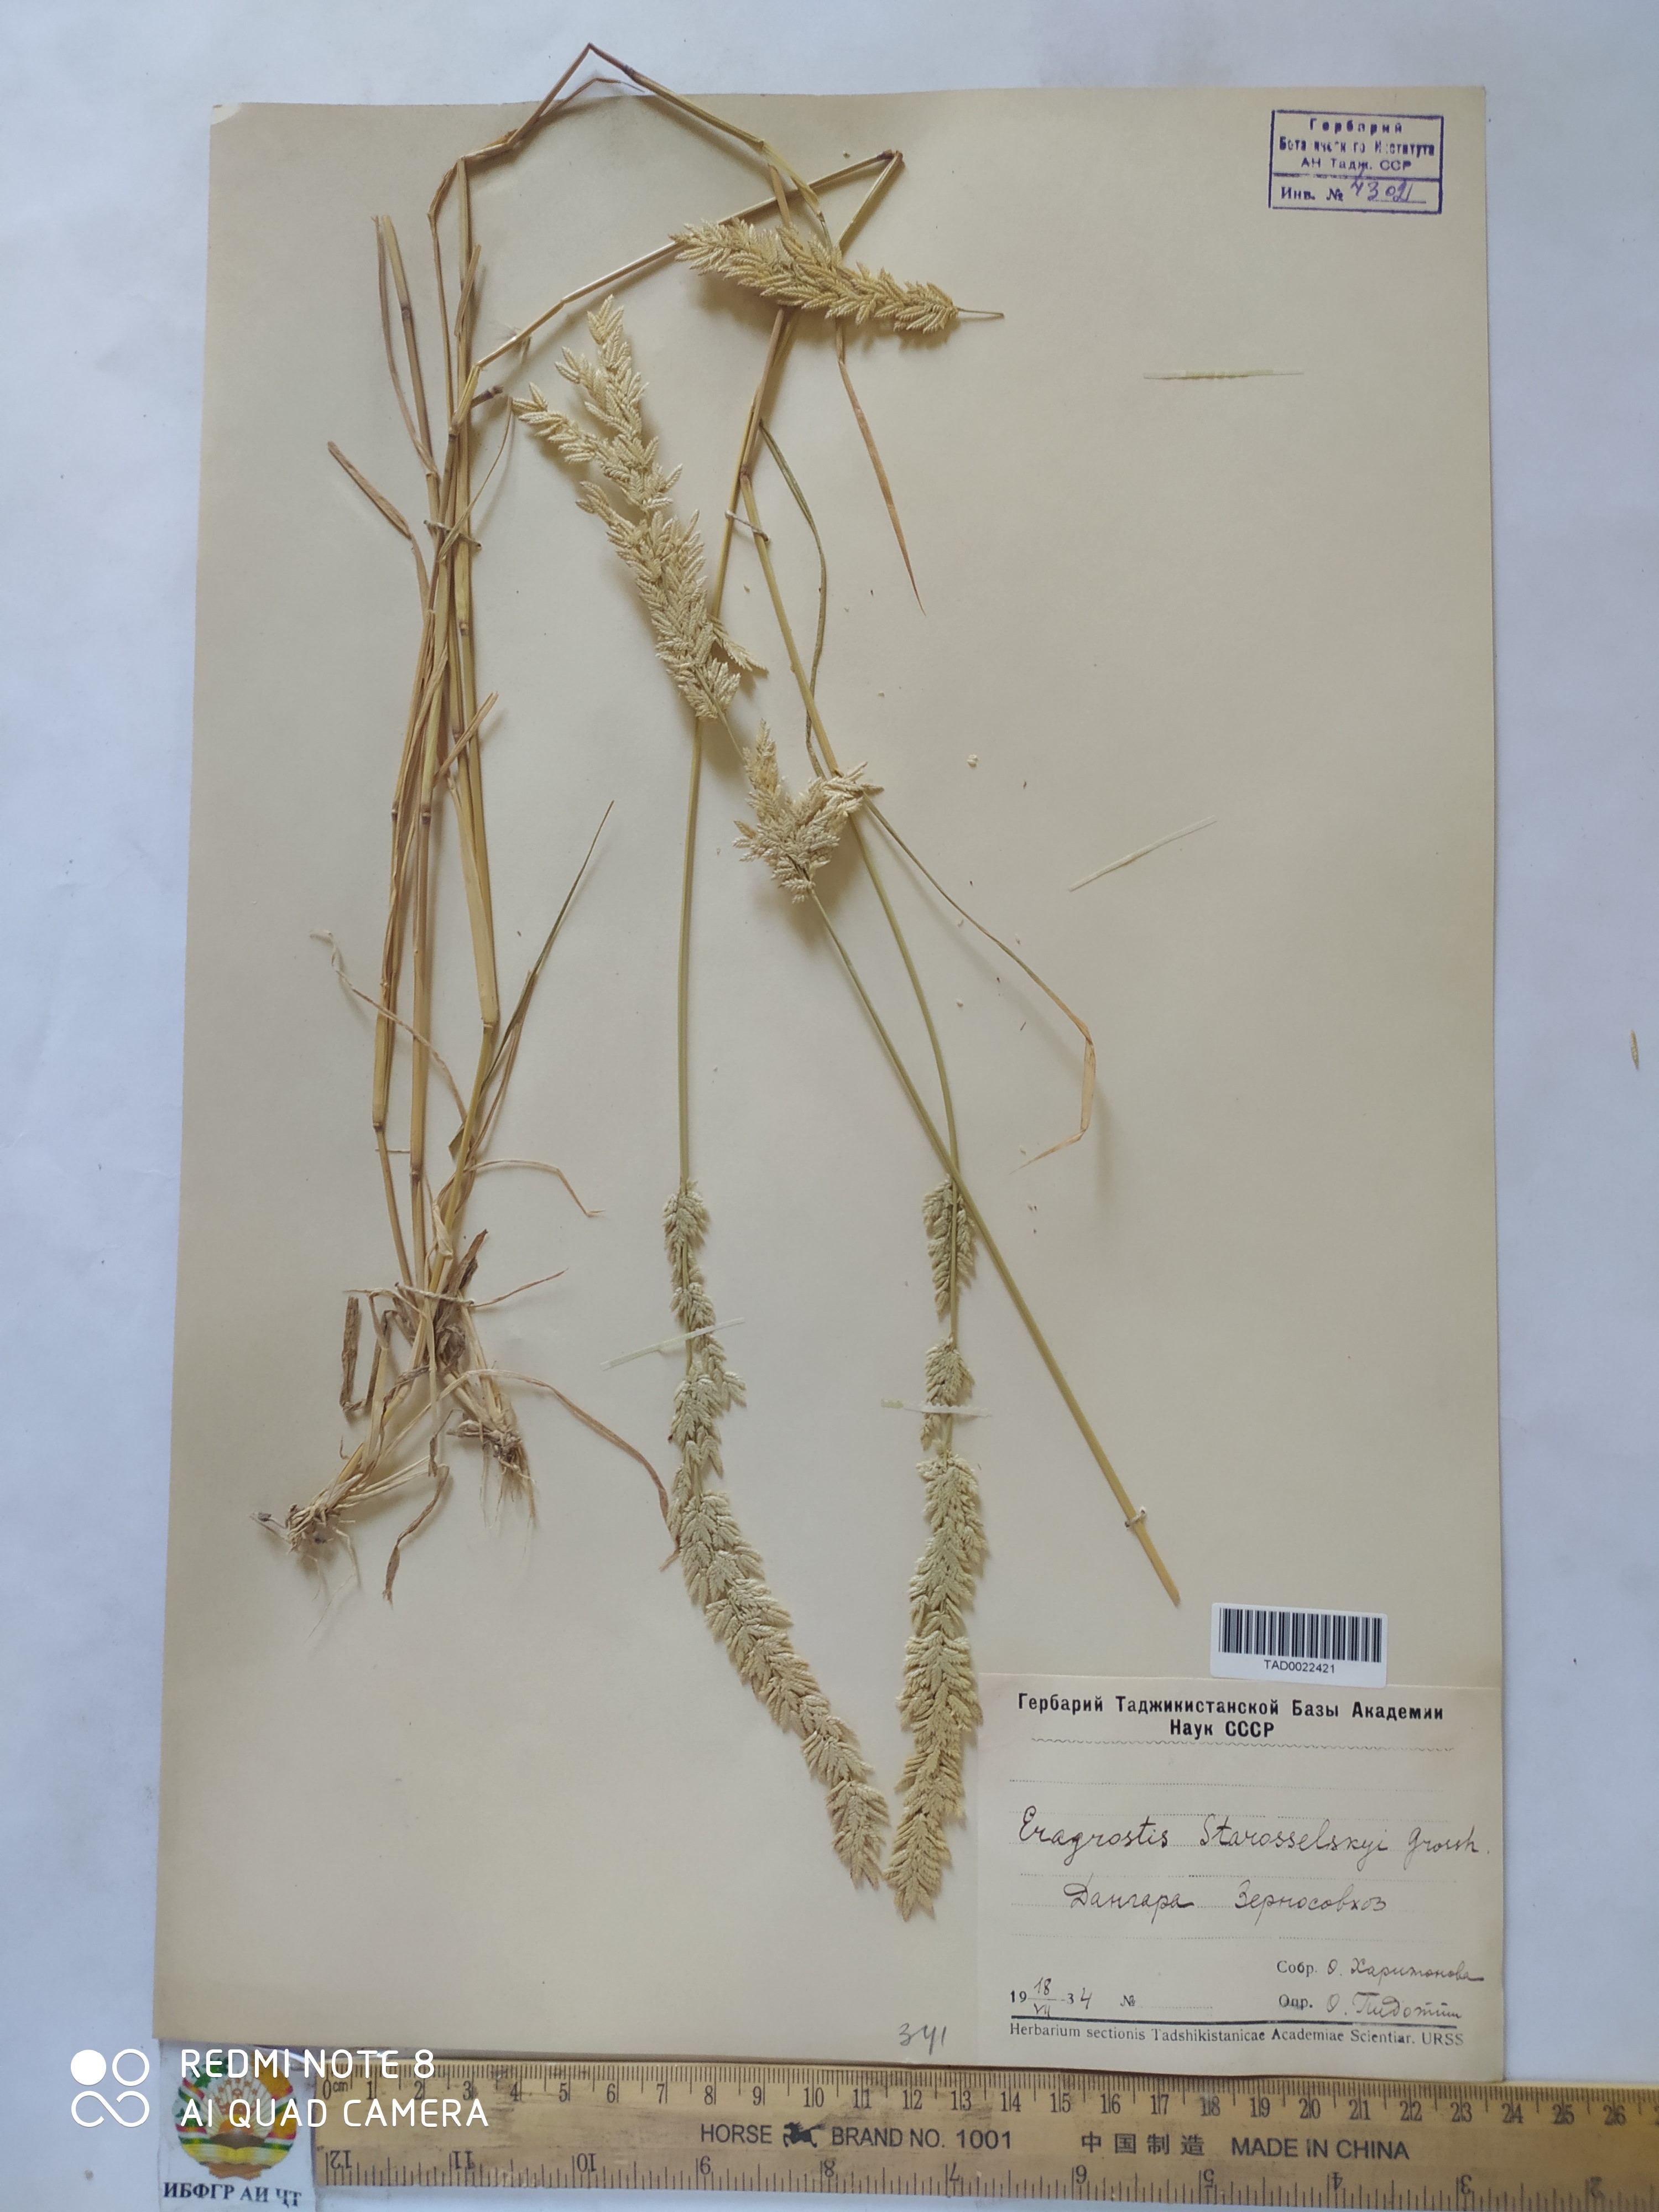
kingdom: Plantae
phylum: Tracheophyta
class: Liliopsida
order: Poales
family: Poaceae
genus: Eragrostis
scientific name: Eragrostis cilianensis
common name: Stinkgrass
